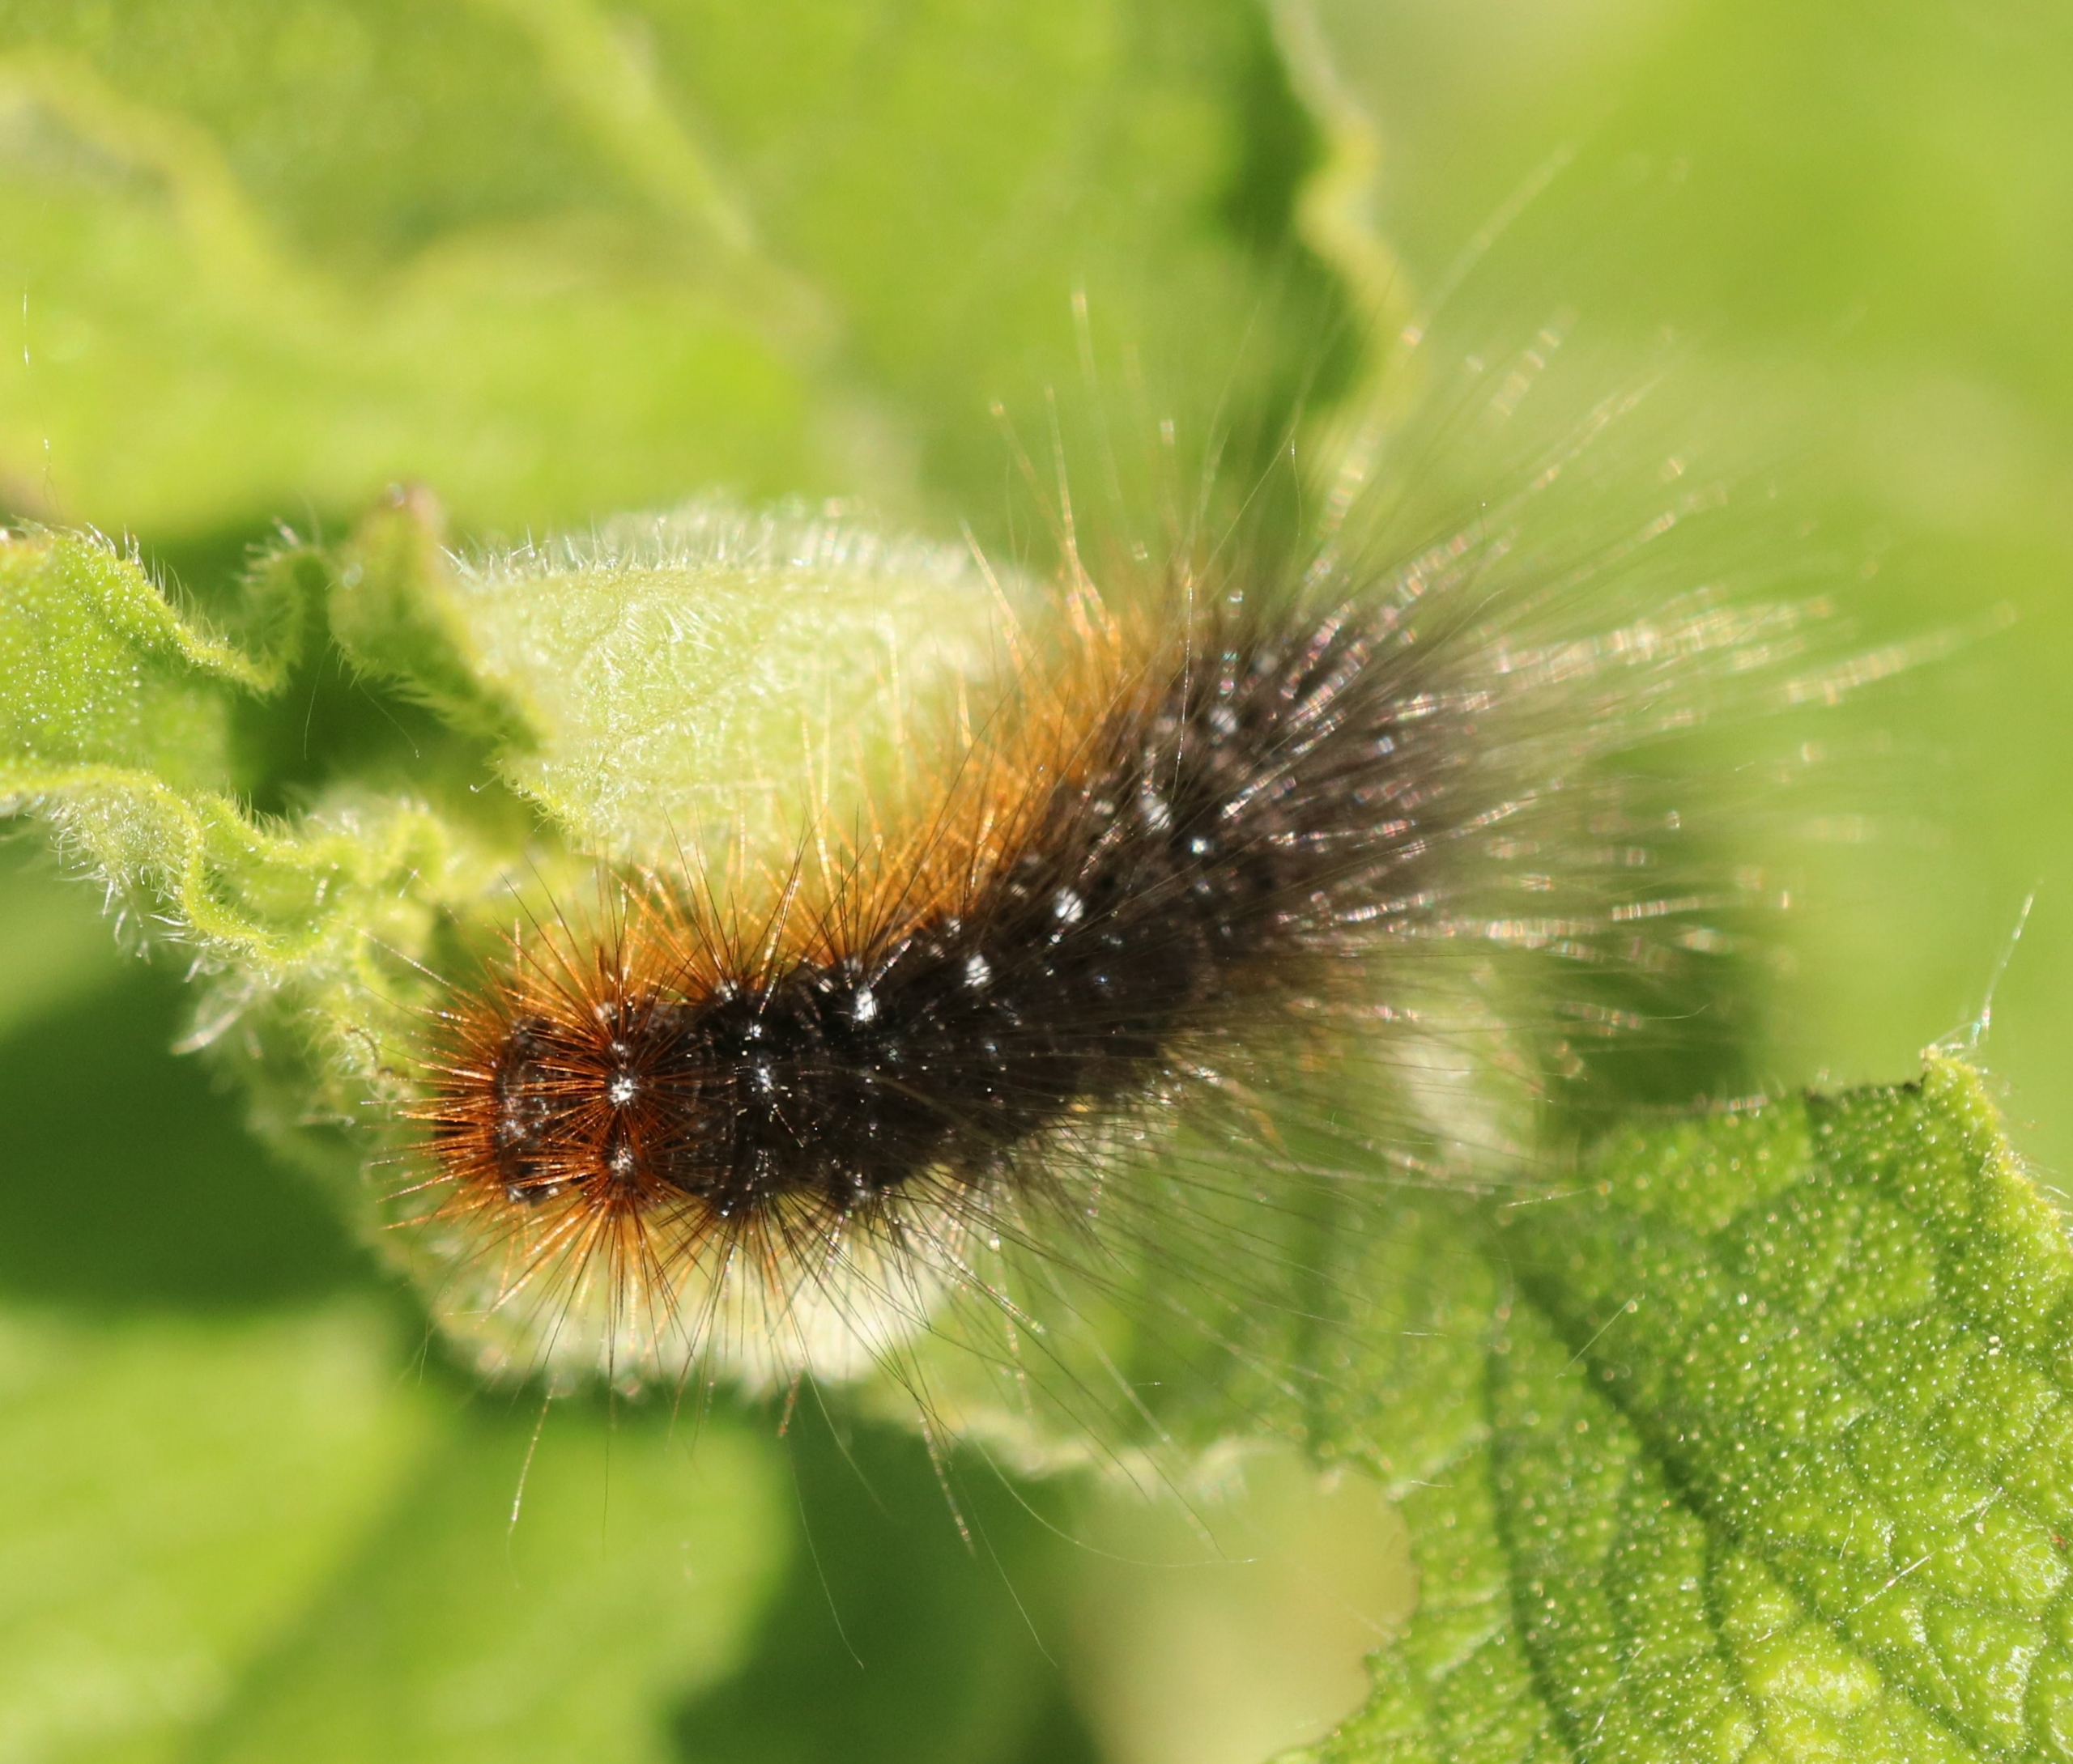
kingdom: Animalia
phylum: Arthropoda
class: Insecta
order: Lepidoptera
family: Erebidae
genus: Arctia
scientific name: Arctia caja
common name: Brun bjørn
